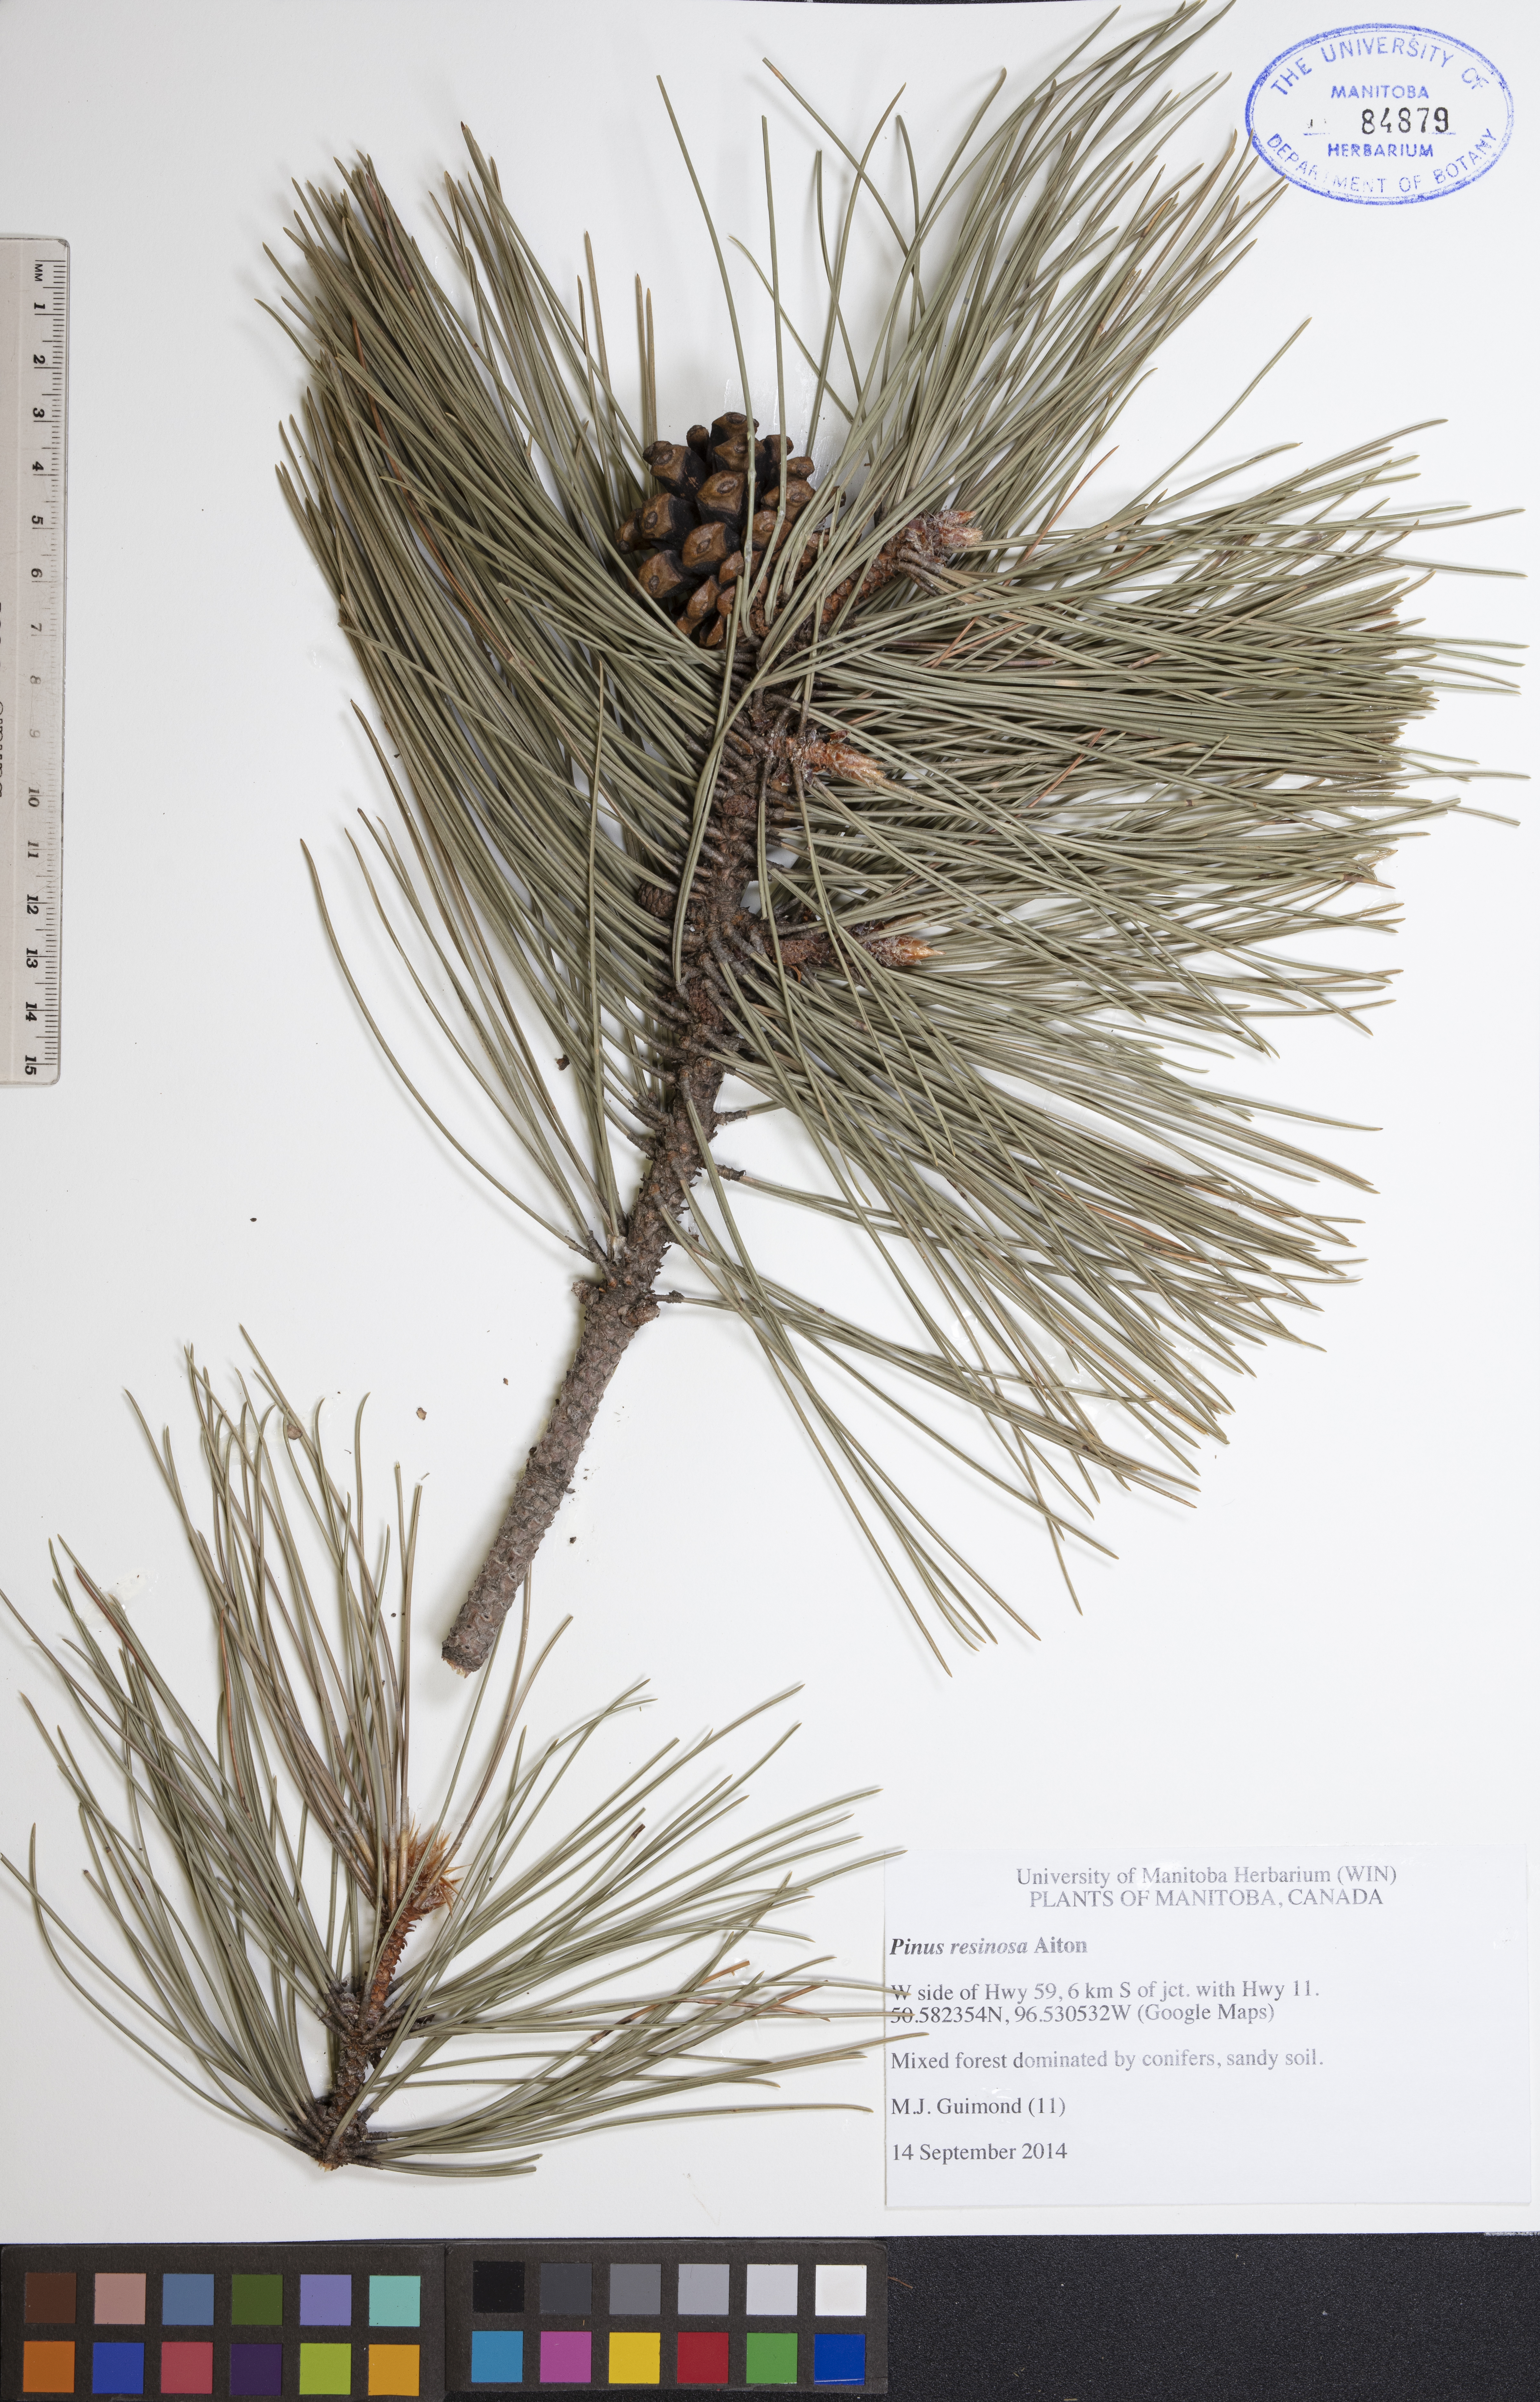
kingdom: Plantae
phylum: Tracheophyta
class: Pinopsida
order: Pinales
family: Pinaceae
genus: Pinus
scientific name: Pinus resinosa
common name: Norway pine
